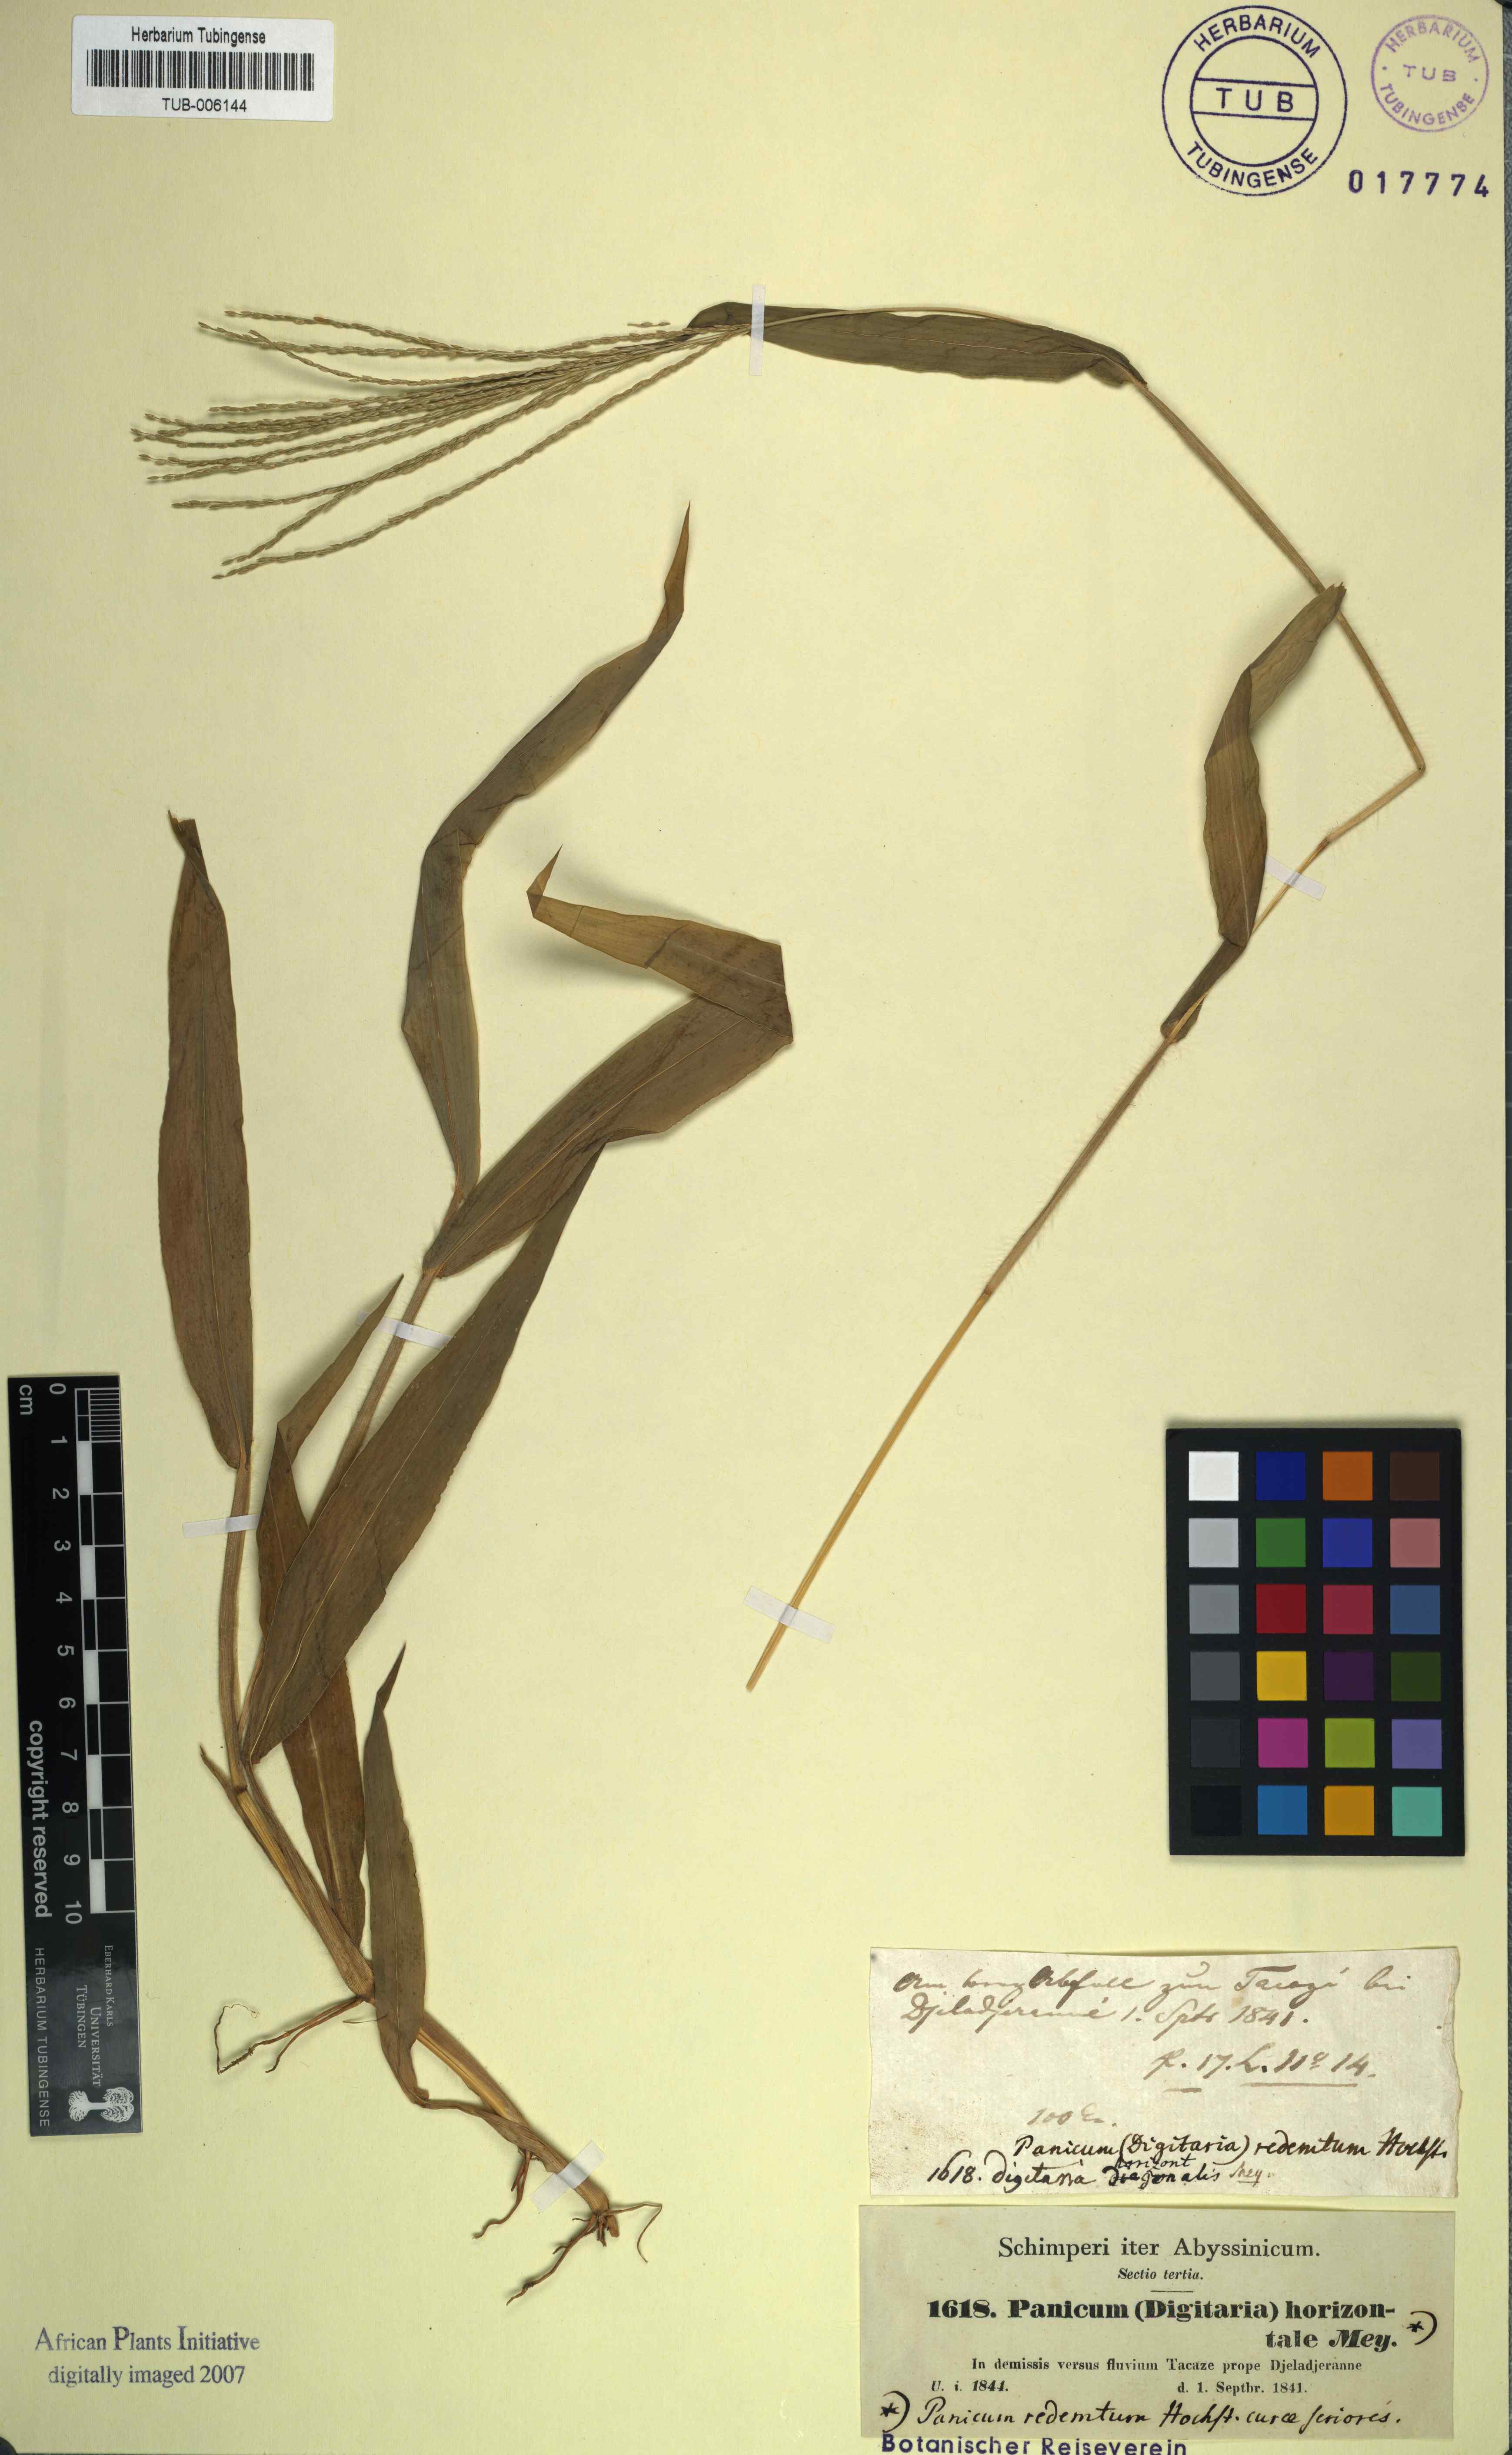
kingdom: Plantae
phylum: Tracheophyta
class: Liliopsida
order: Poales
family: Poaceae
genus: Digitaria
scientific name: Digitaria sanguinalis
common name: Hairy crabgrass
